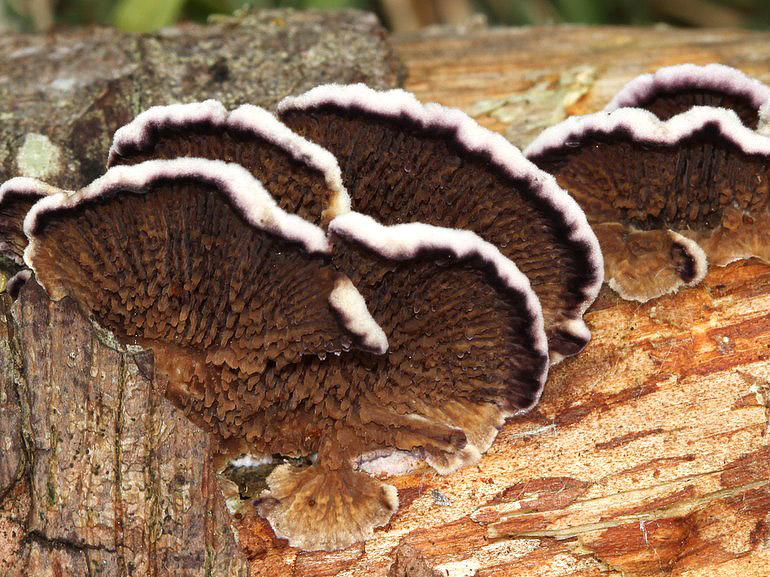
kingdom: Fungi
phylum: Basidiomycota
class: Agaricomycetes
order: Hymenochaetales
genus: Trichaptum
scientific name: Trichaptum fuscoviolaceum
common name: tandet violporesvamp
